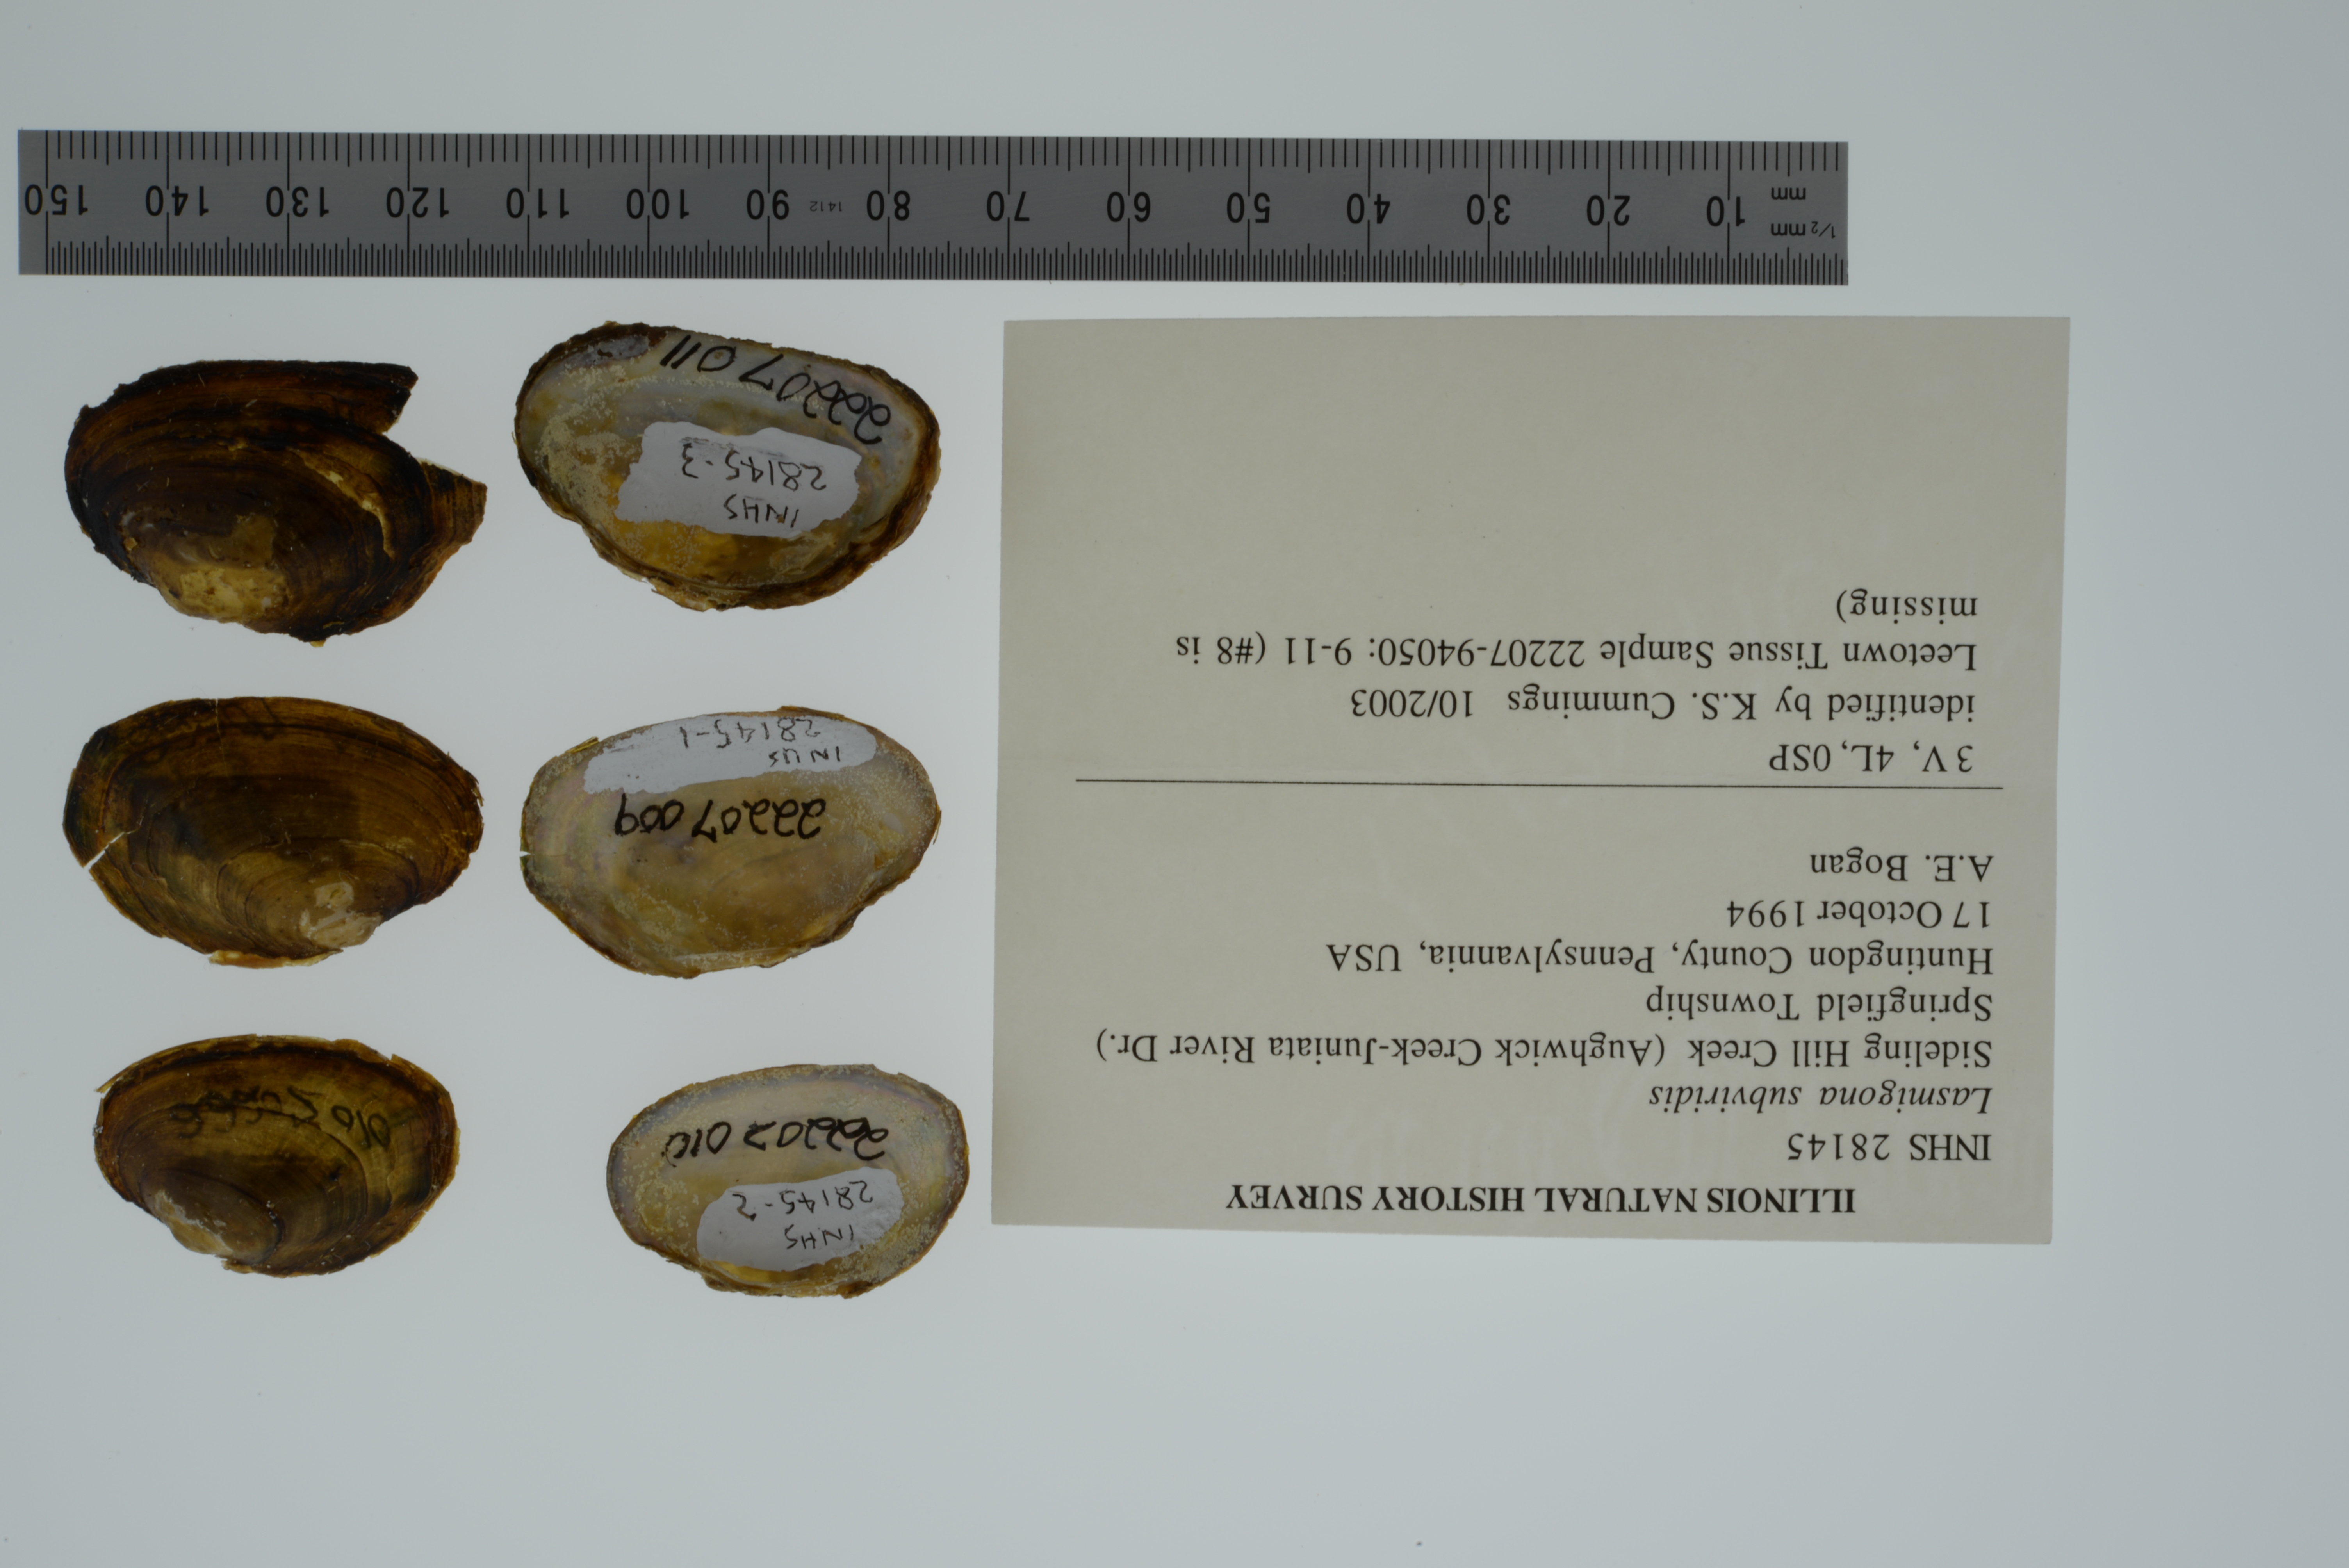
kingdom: Animalia
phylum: Mollusca
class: Bivalvia
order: Unionida
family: Unionidae
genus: Lasmigona
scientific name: Lasmigona subviridis
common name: Green floater
